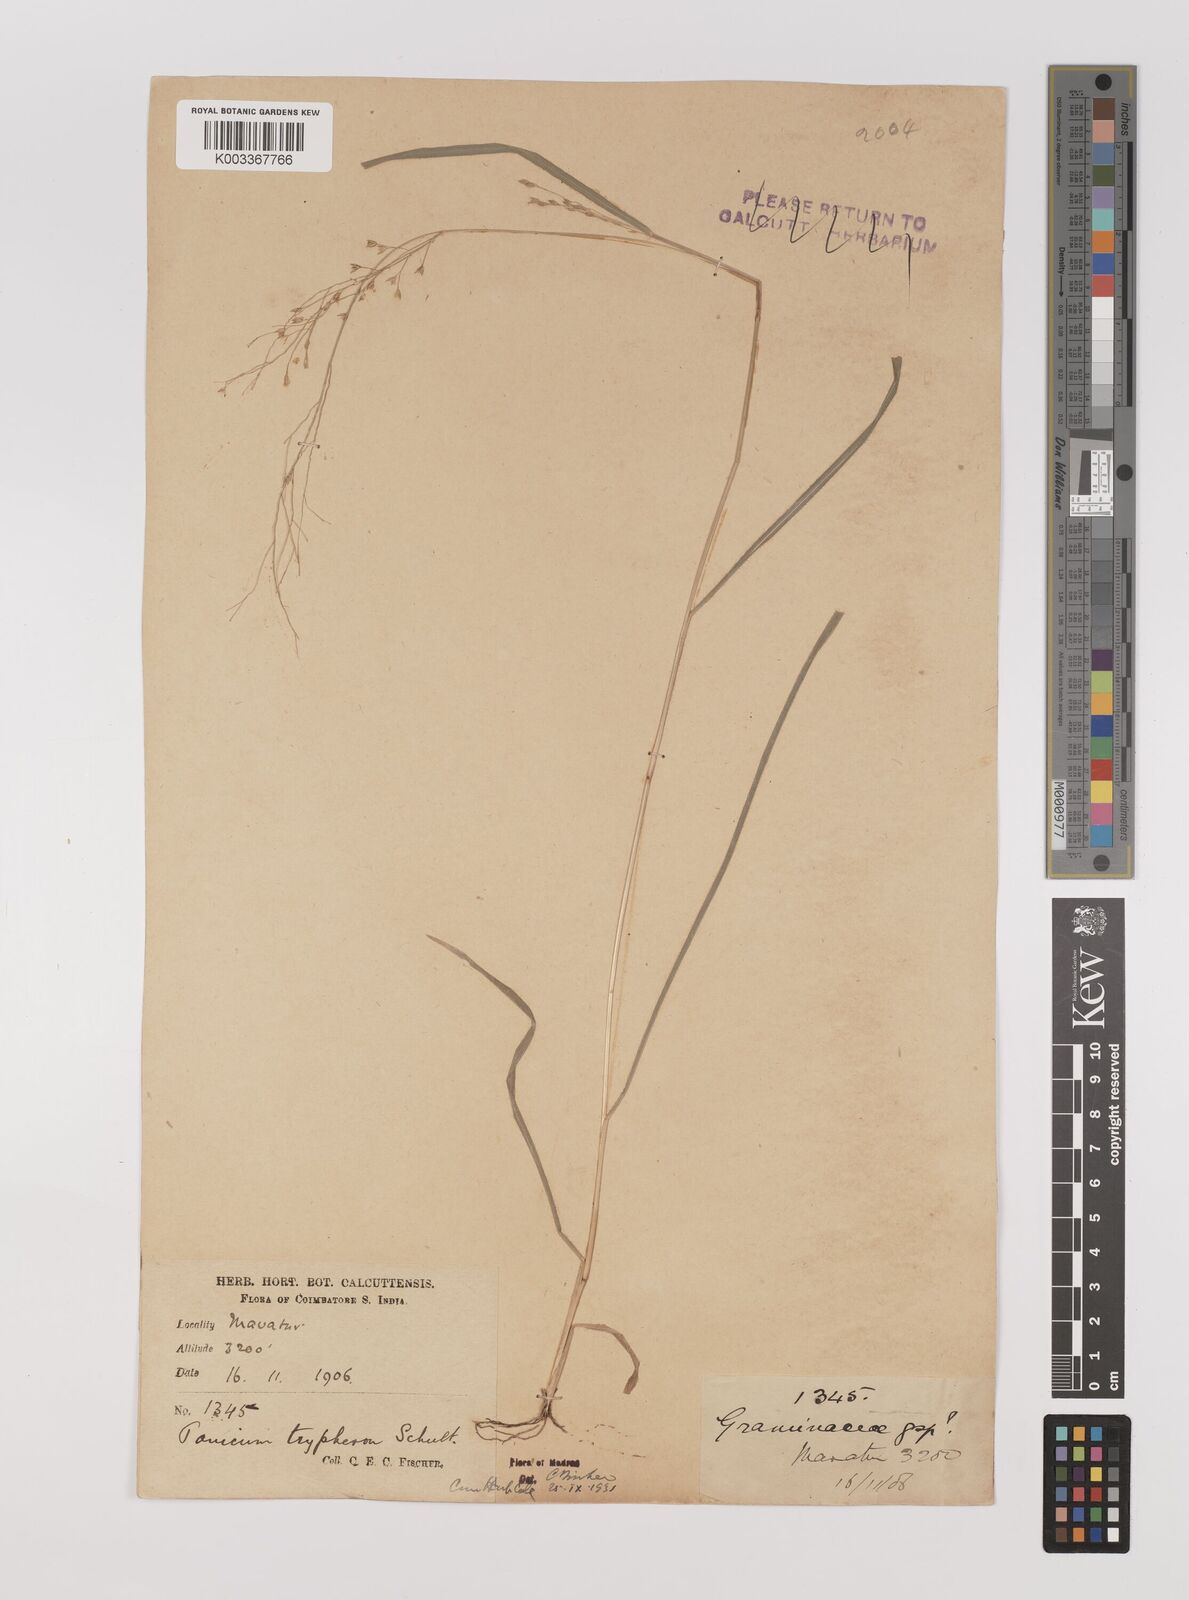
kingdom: Plantae
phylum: Tracheophyta
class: Liliopsida
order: Poales
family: Poaceae
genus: Panicum
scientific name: Panicum curviflorum
